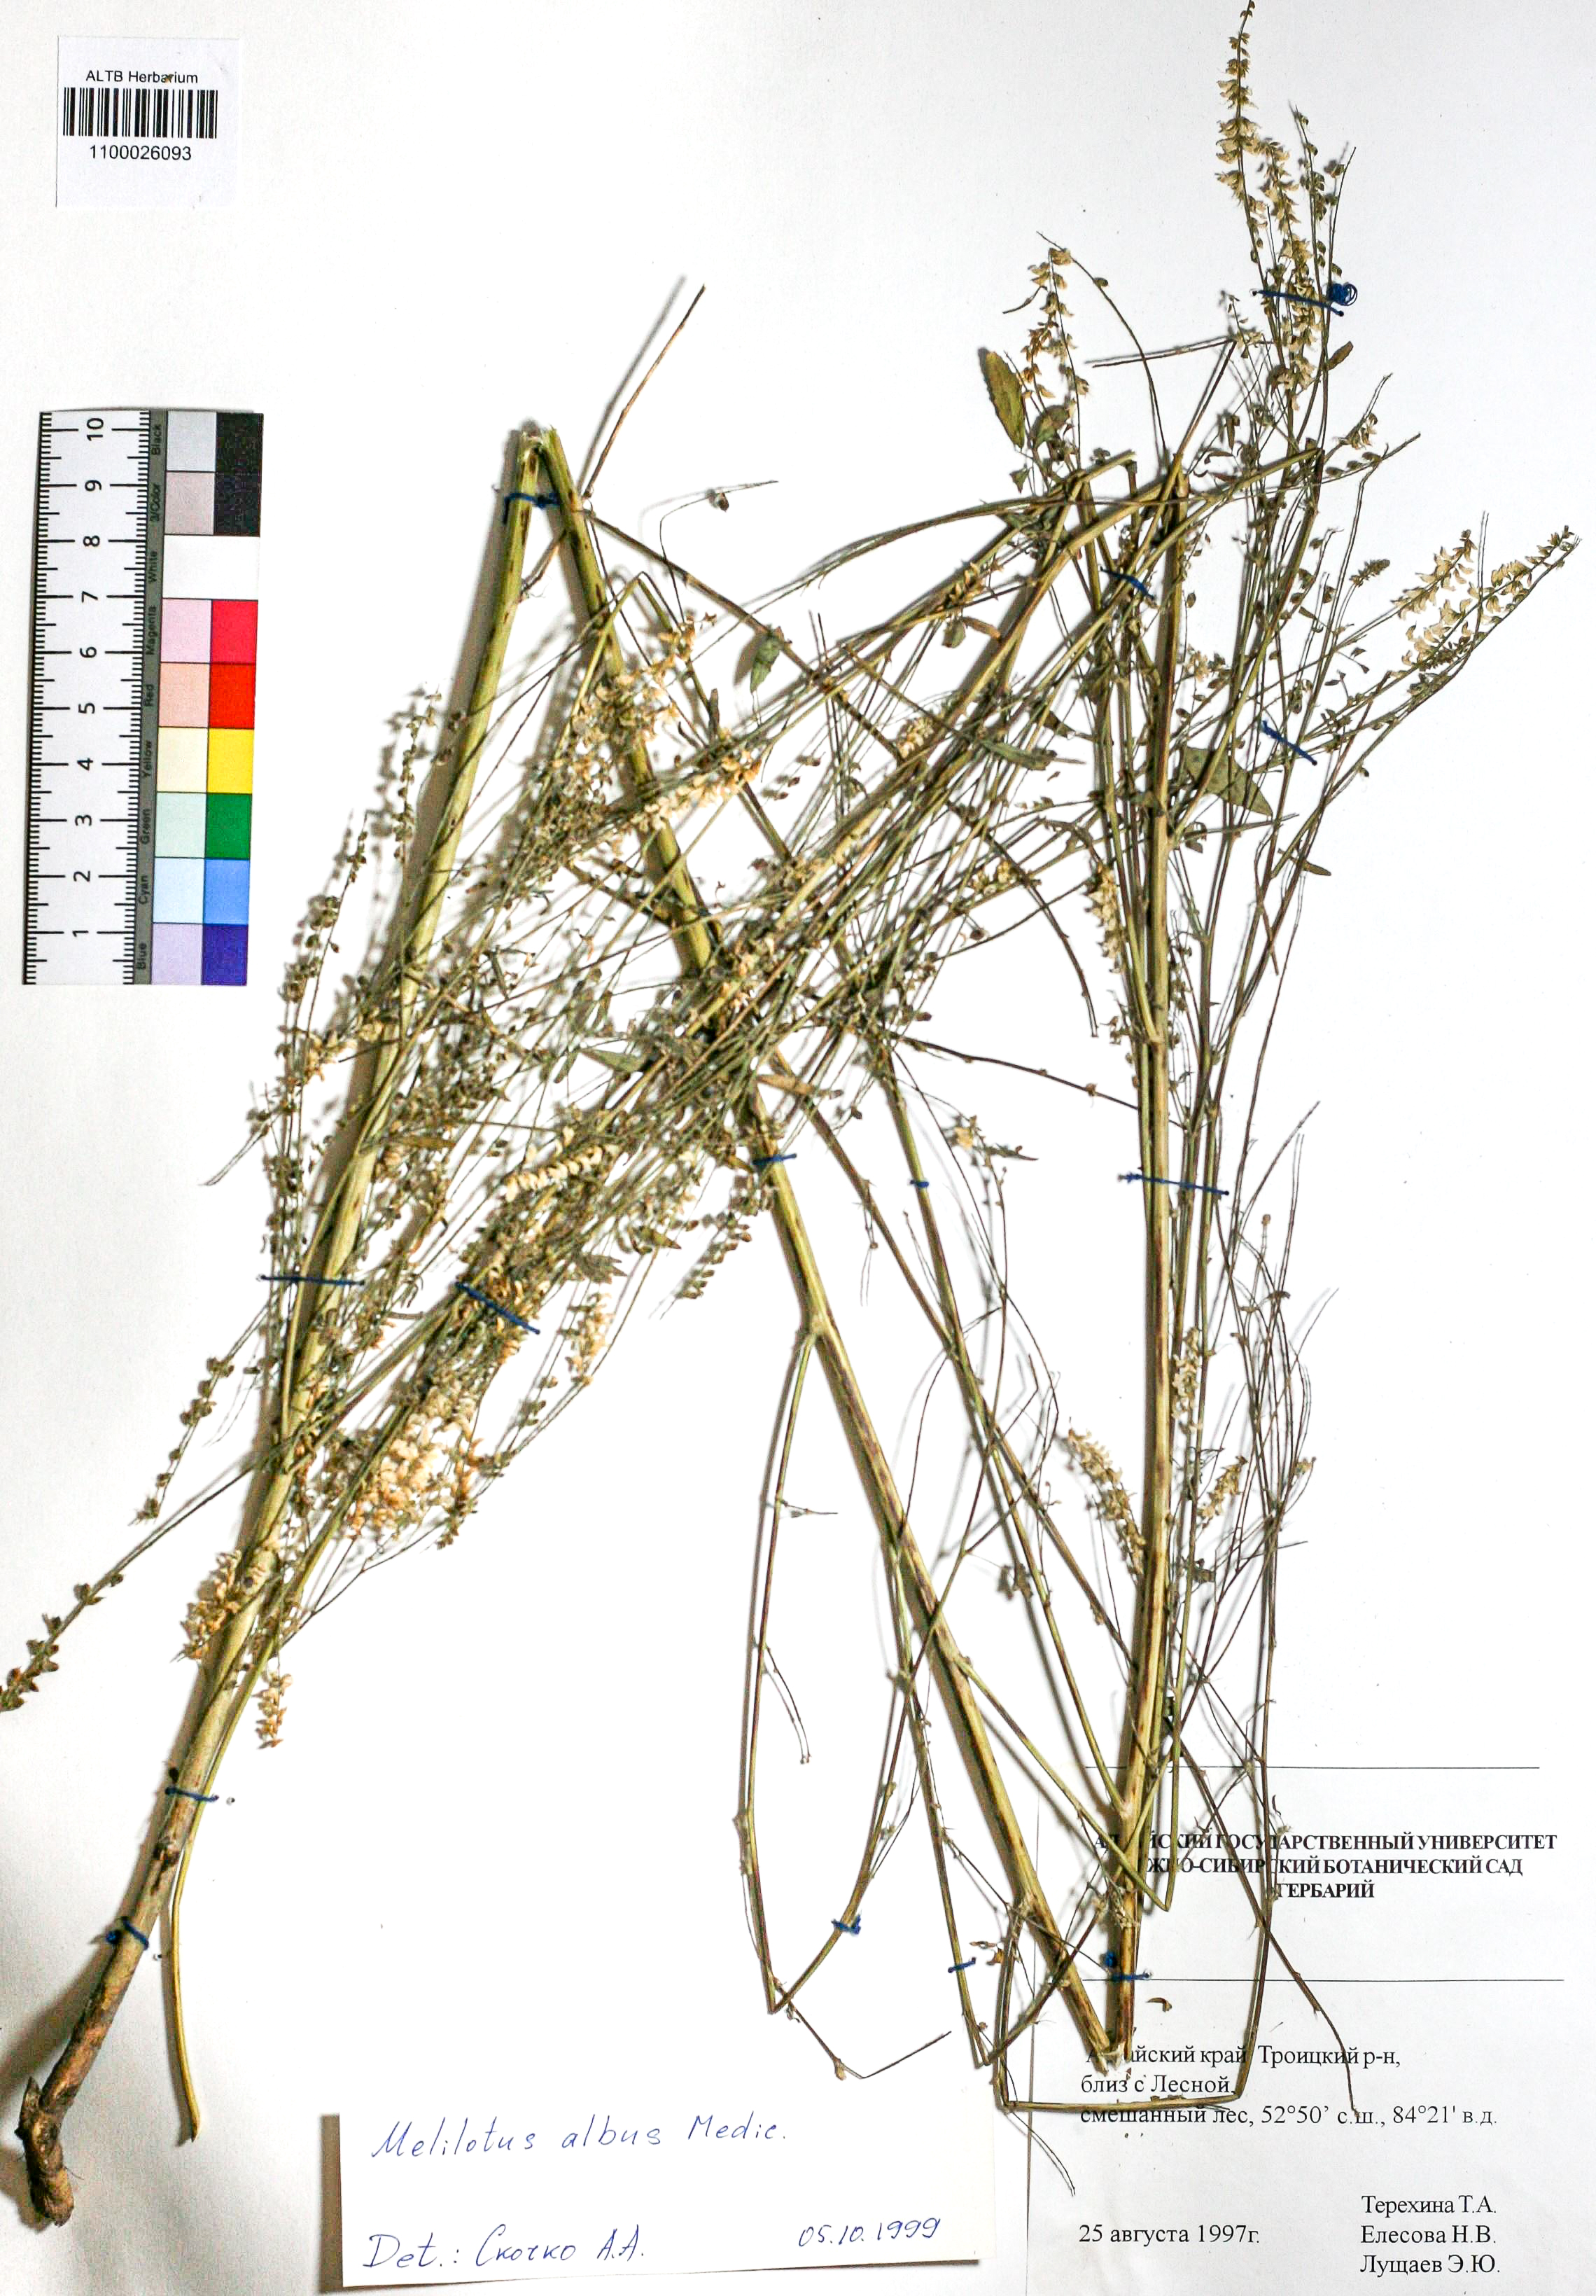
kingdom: Plantae
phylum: Tracheophyta
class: Magnoliopsida
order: Fabales
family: Fabaceae
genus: Melilotus
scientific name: Melilotus albus
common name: White melilot
